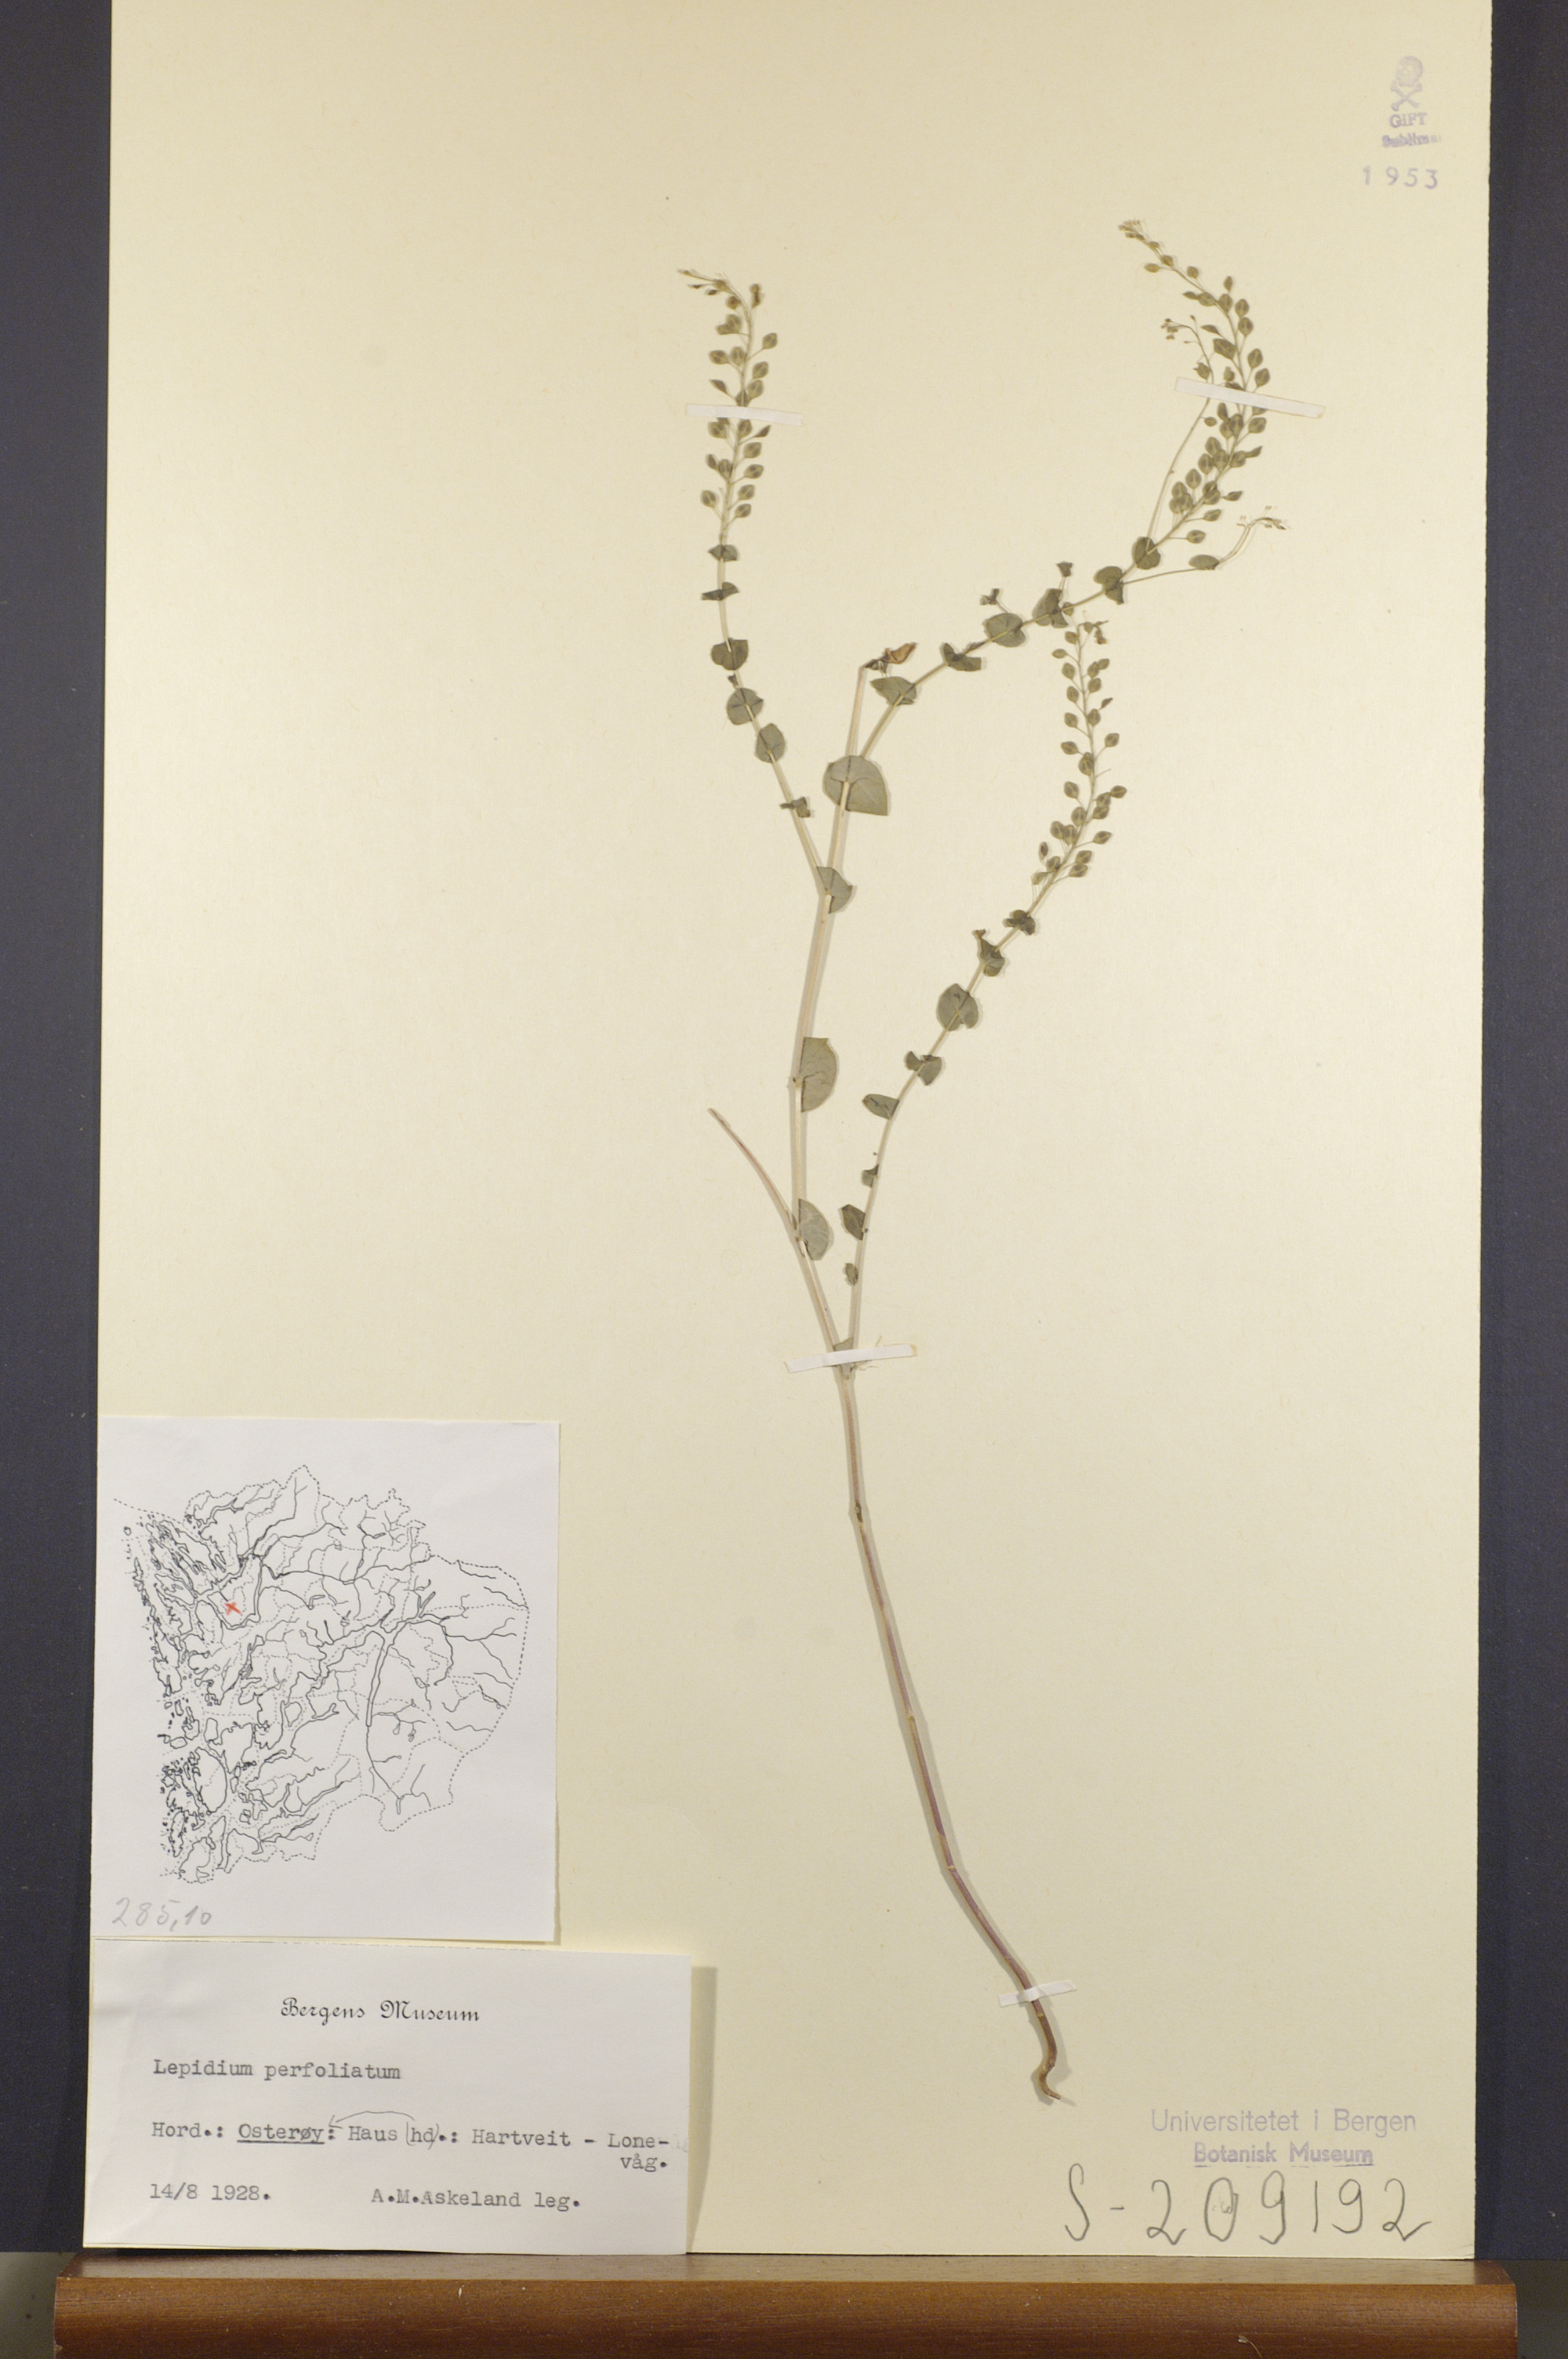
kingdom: Plantae
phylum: Tracheophyta
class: Magnoliopsida
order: Brassicales
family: Brassicaceae
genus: Lepidium
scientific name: Lepidium perfoliatum
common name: Perfoliate pepperwort
